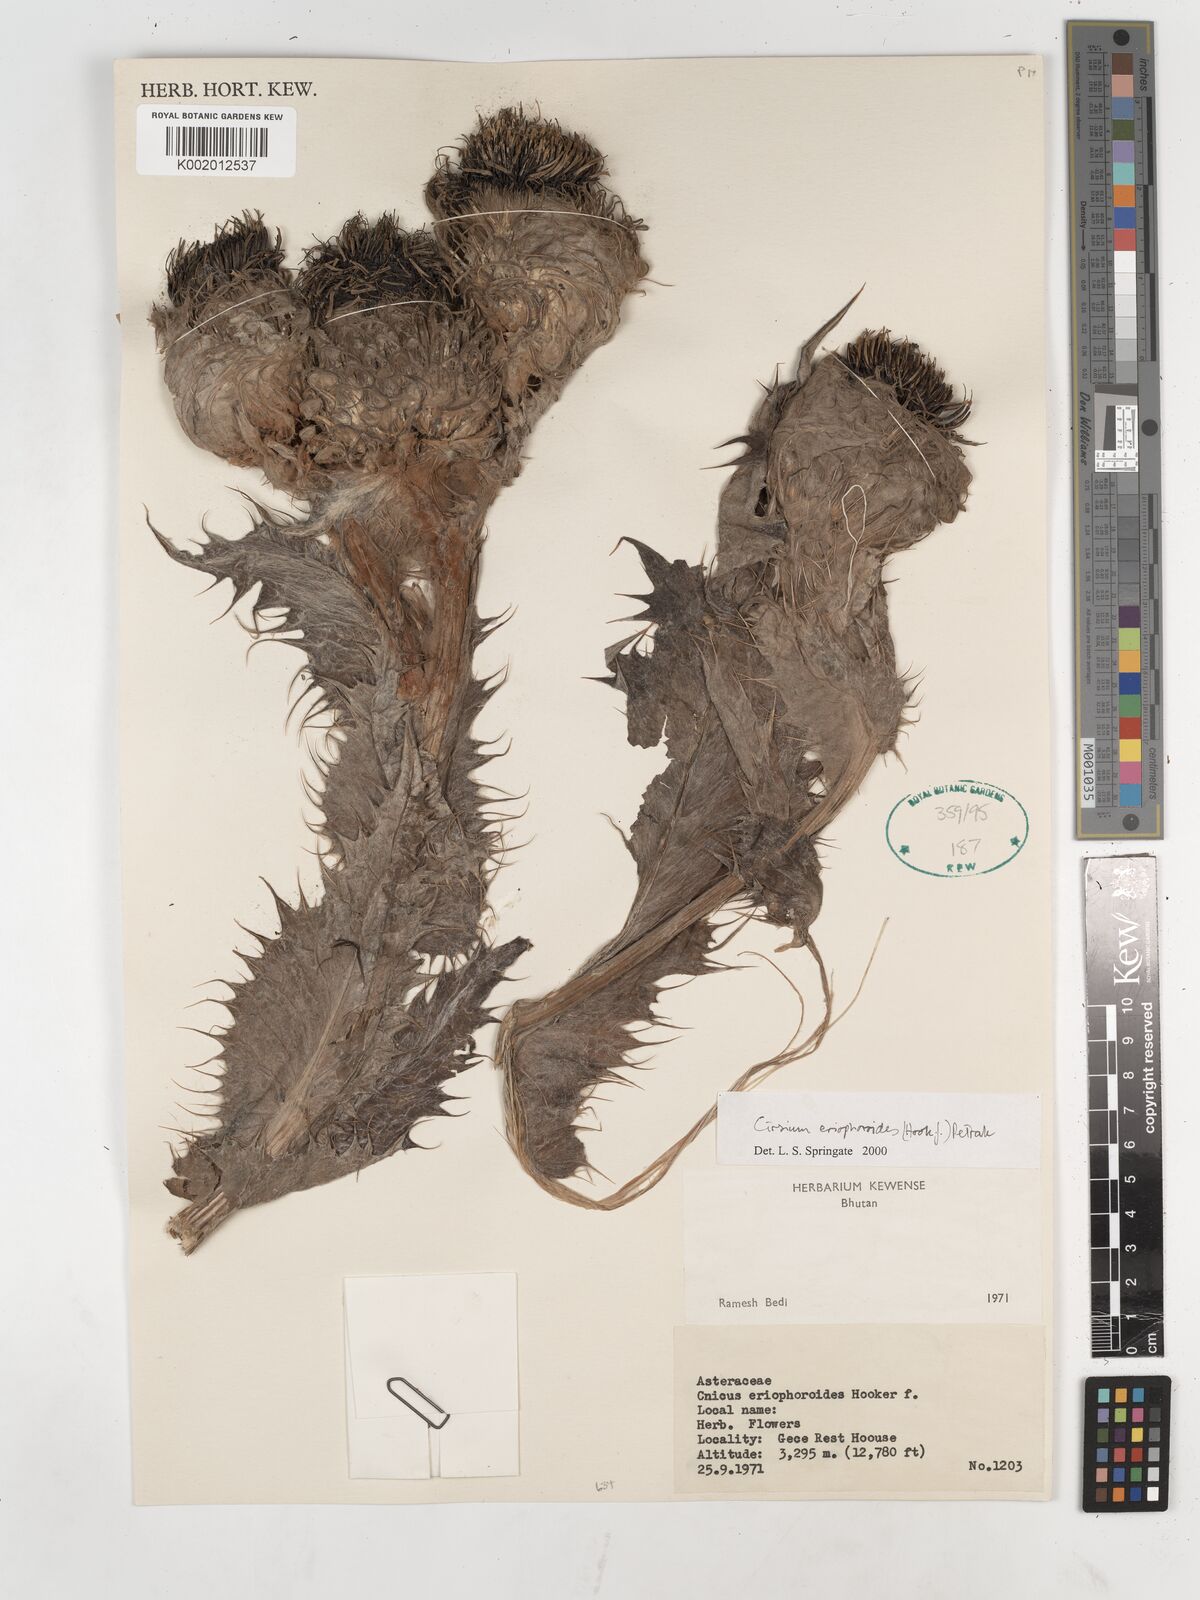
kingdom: Plantae
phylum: Tracheophyta
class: Magnoliopsida
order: Asterales
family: Asteraceae
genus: Cirsium
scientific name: Cirsium eriophoroides
